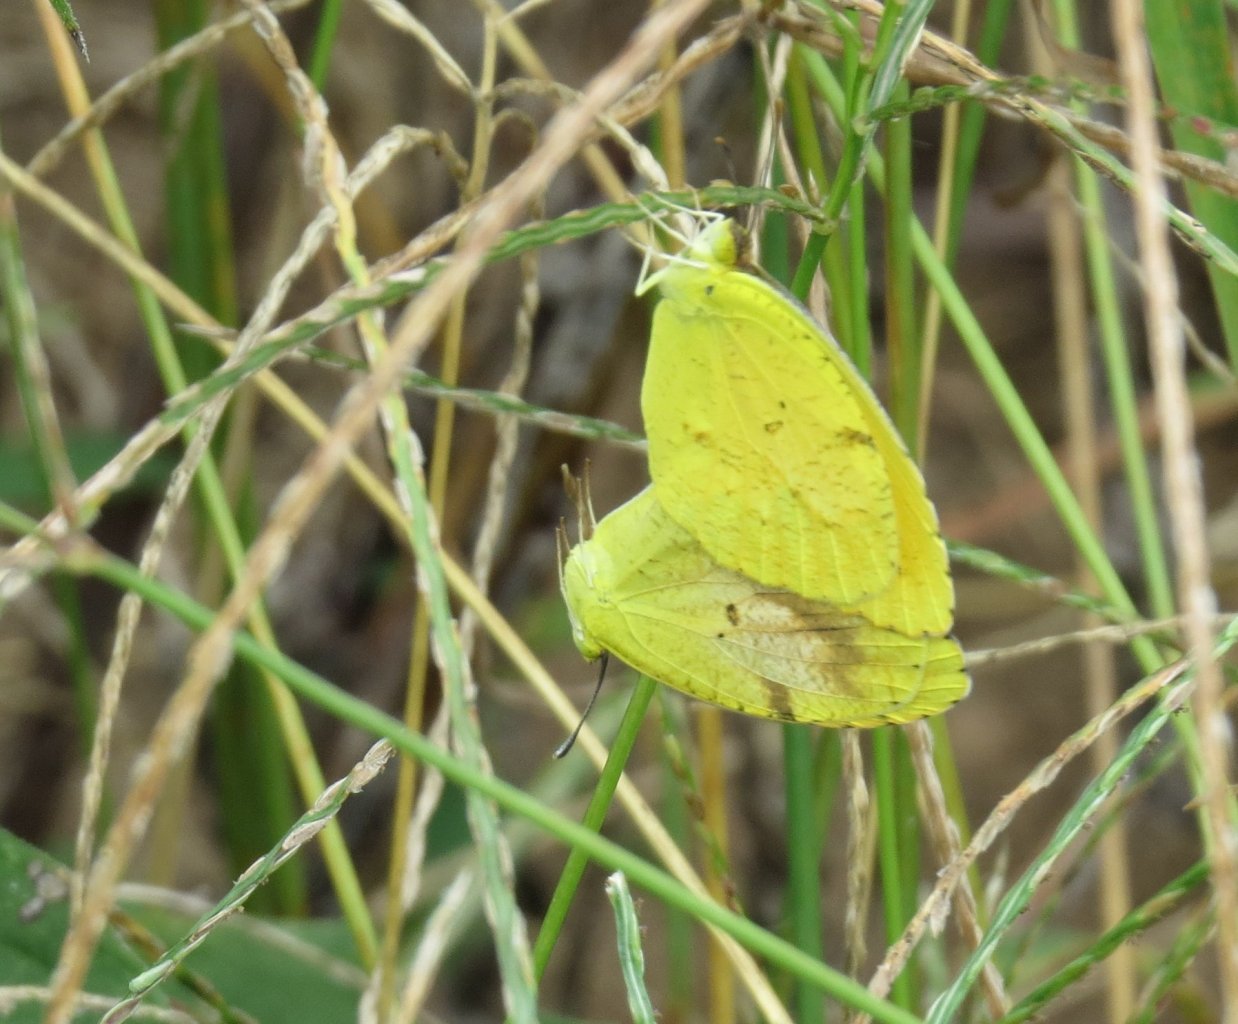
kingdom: Animalia
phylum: Arthropoda
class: Insecta
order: Lepidoptera
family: Pieridae
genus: Abaeis
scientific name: Abaeis nicippe
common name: Sleepy Orange
